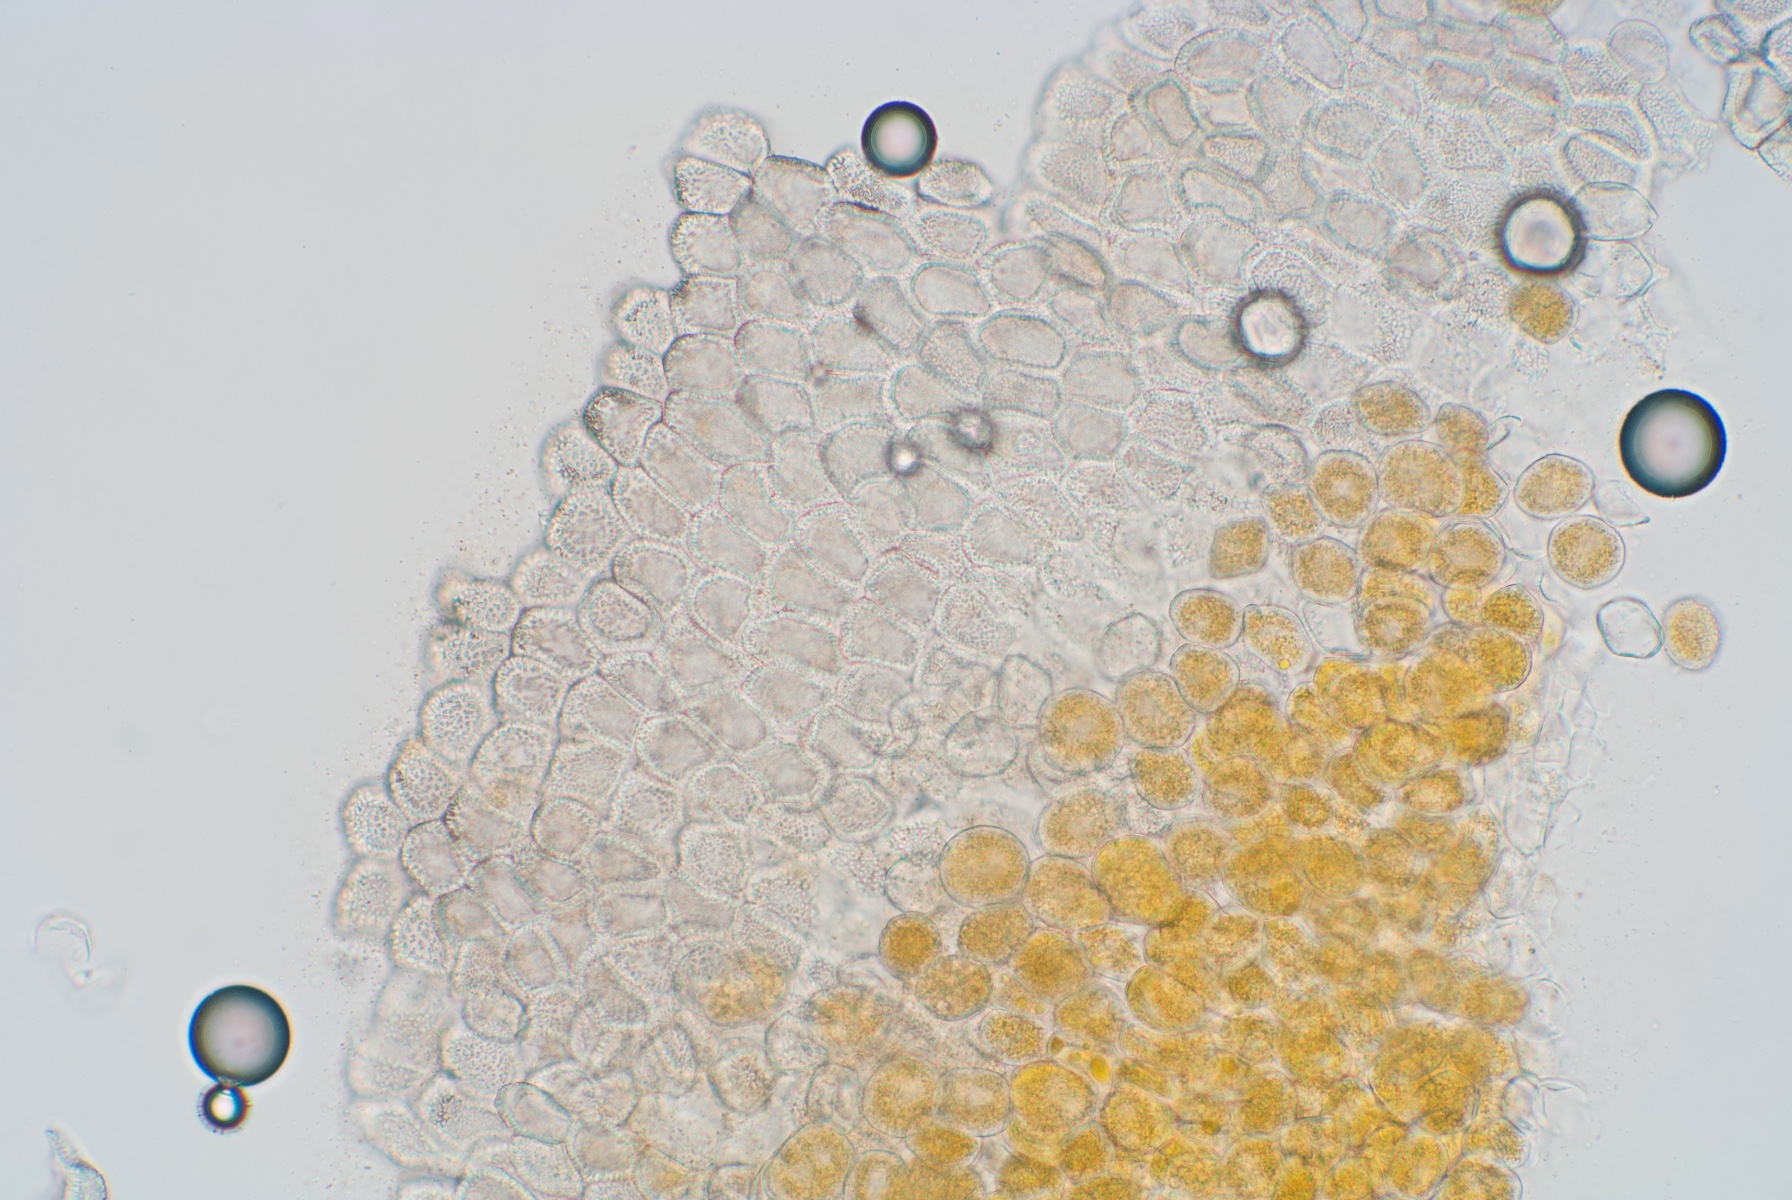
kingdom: Fungi
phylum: Basidiomycota
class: Pucciniomycetes
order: Pucciniales
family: Pucciniaceae
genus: Uromyces
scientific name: Uromyces ervi
